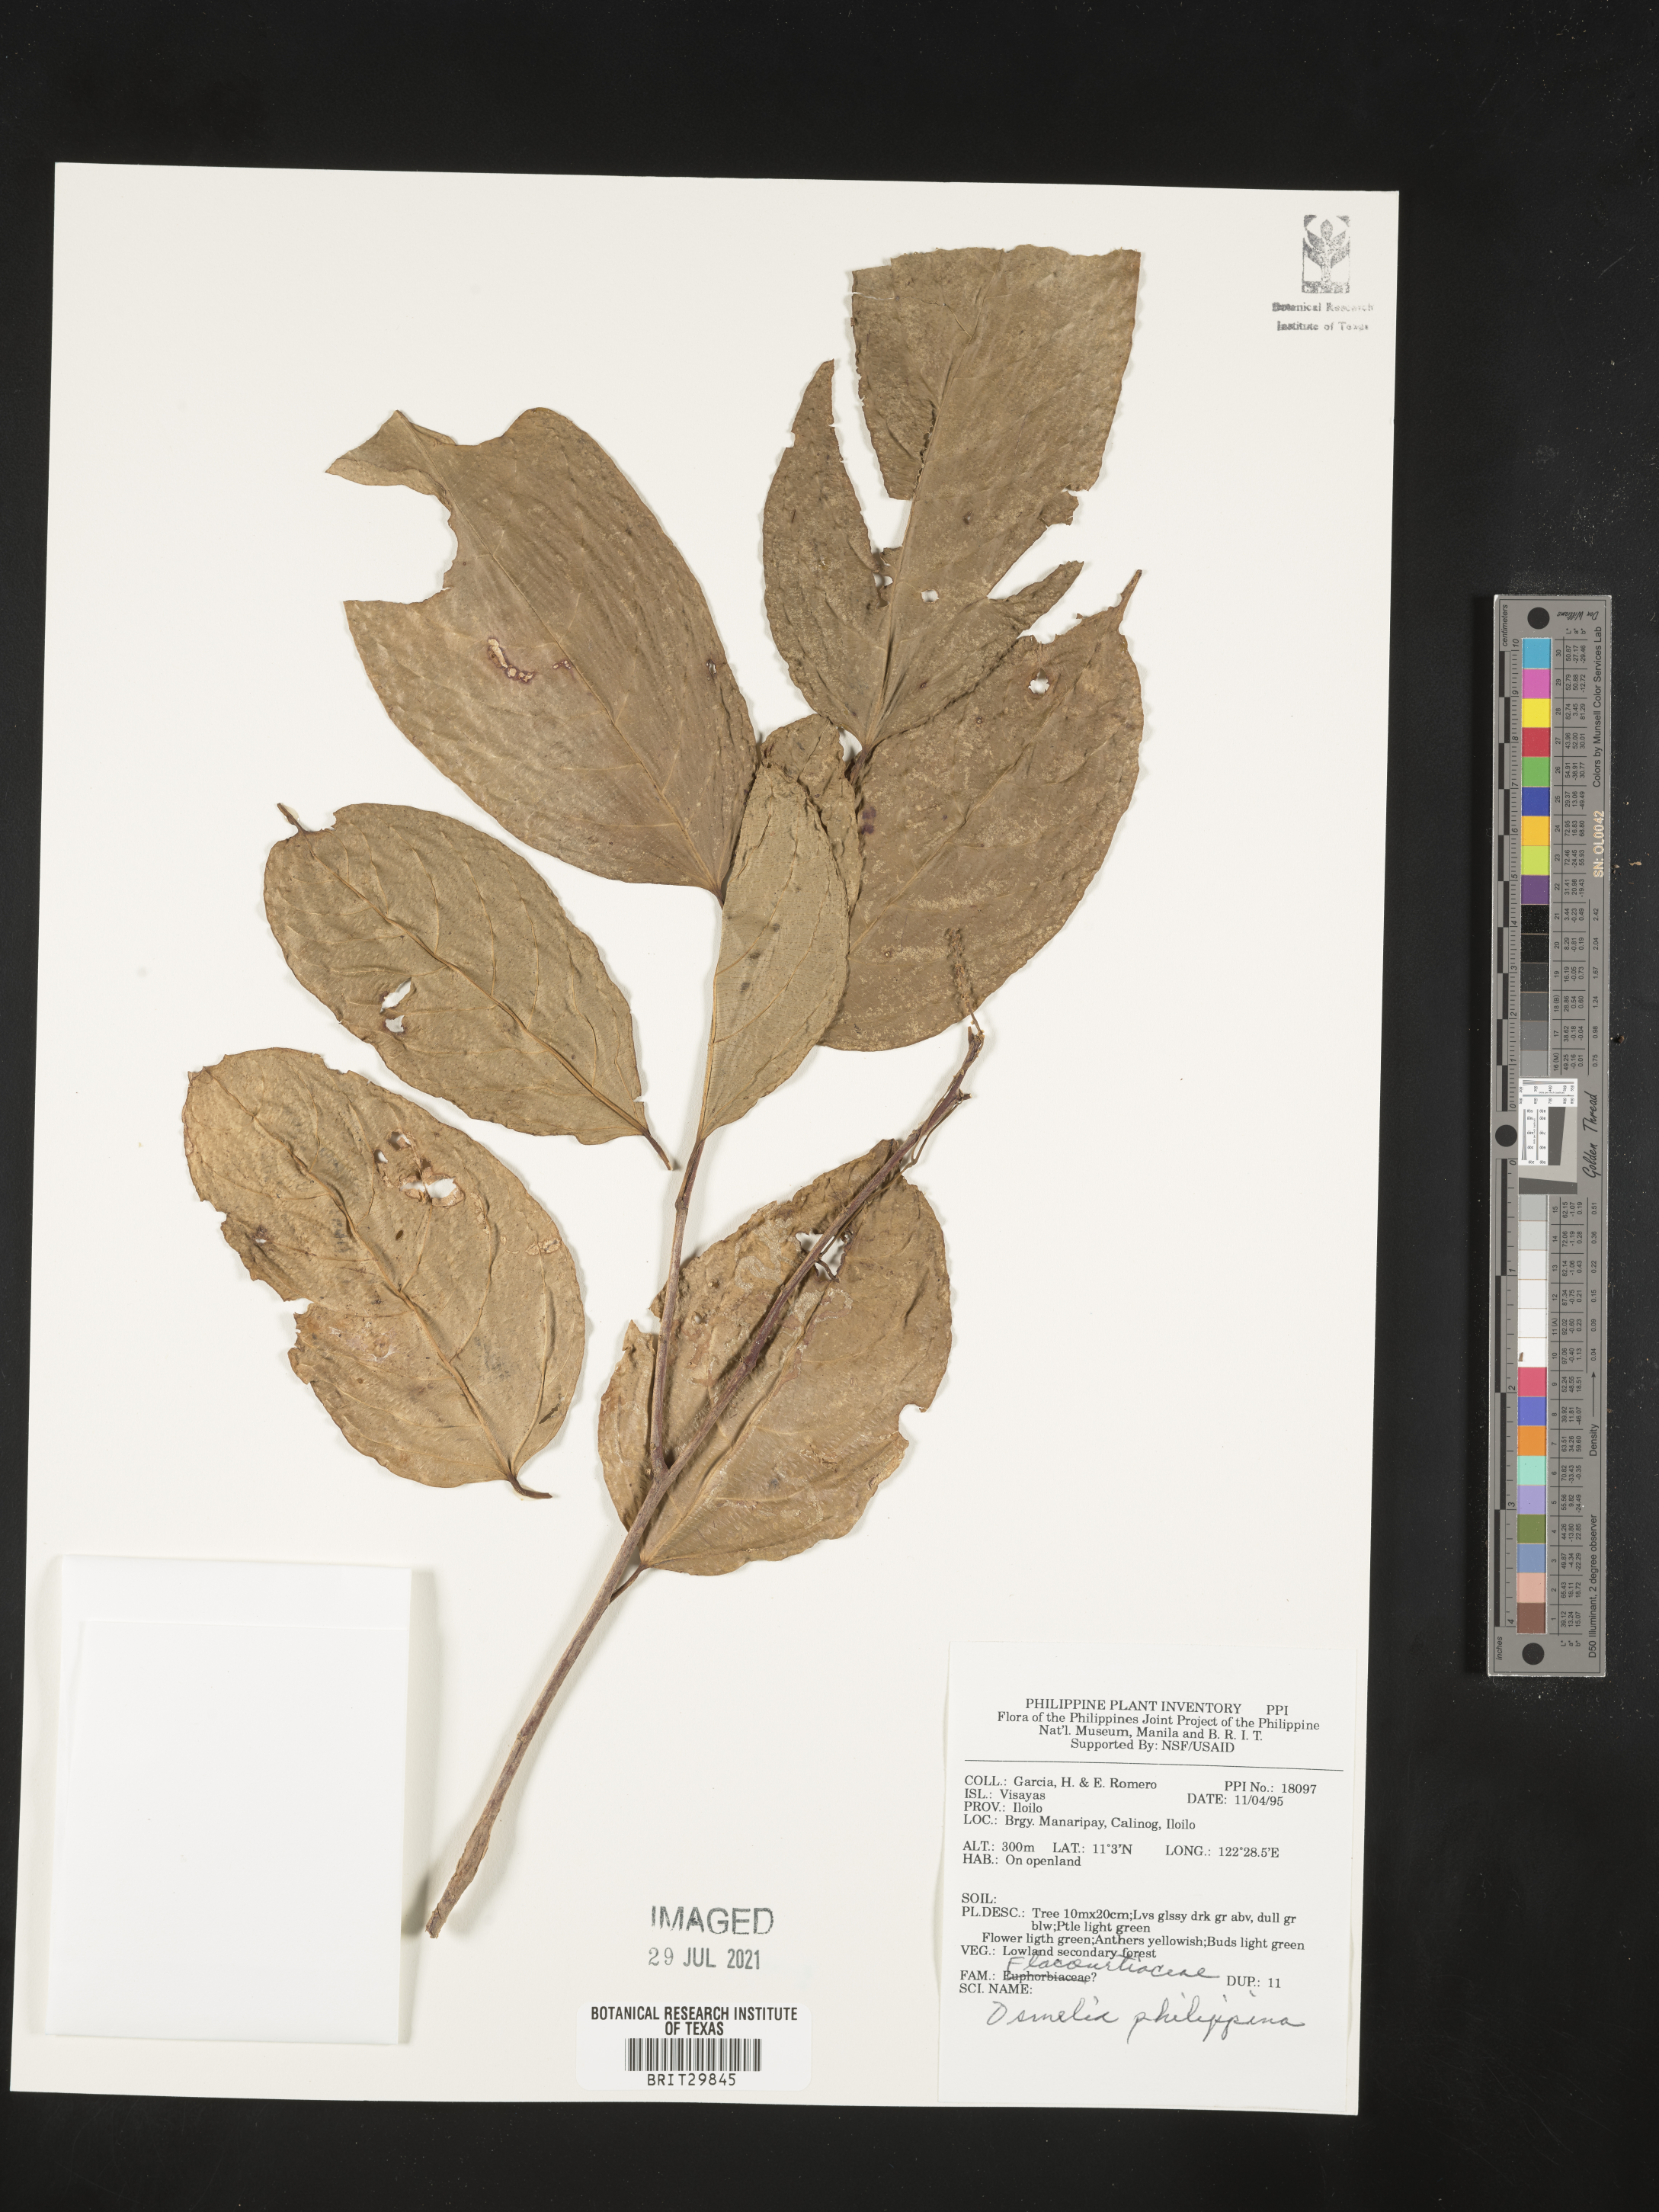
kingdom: Plantae
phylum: Tracheophyta
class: Magnoliopsida
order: Malpighiales
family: Salicaceae
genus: Osmelia
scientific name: Osmelia philippina
